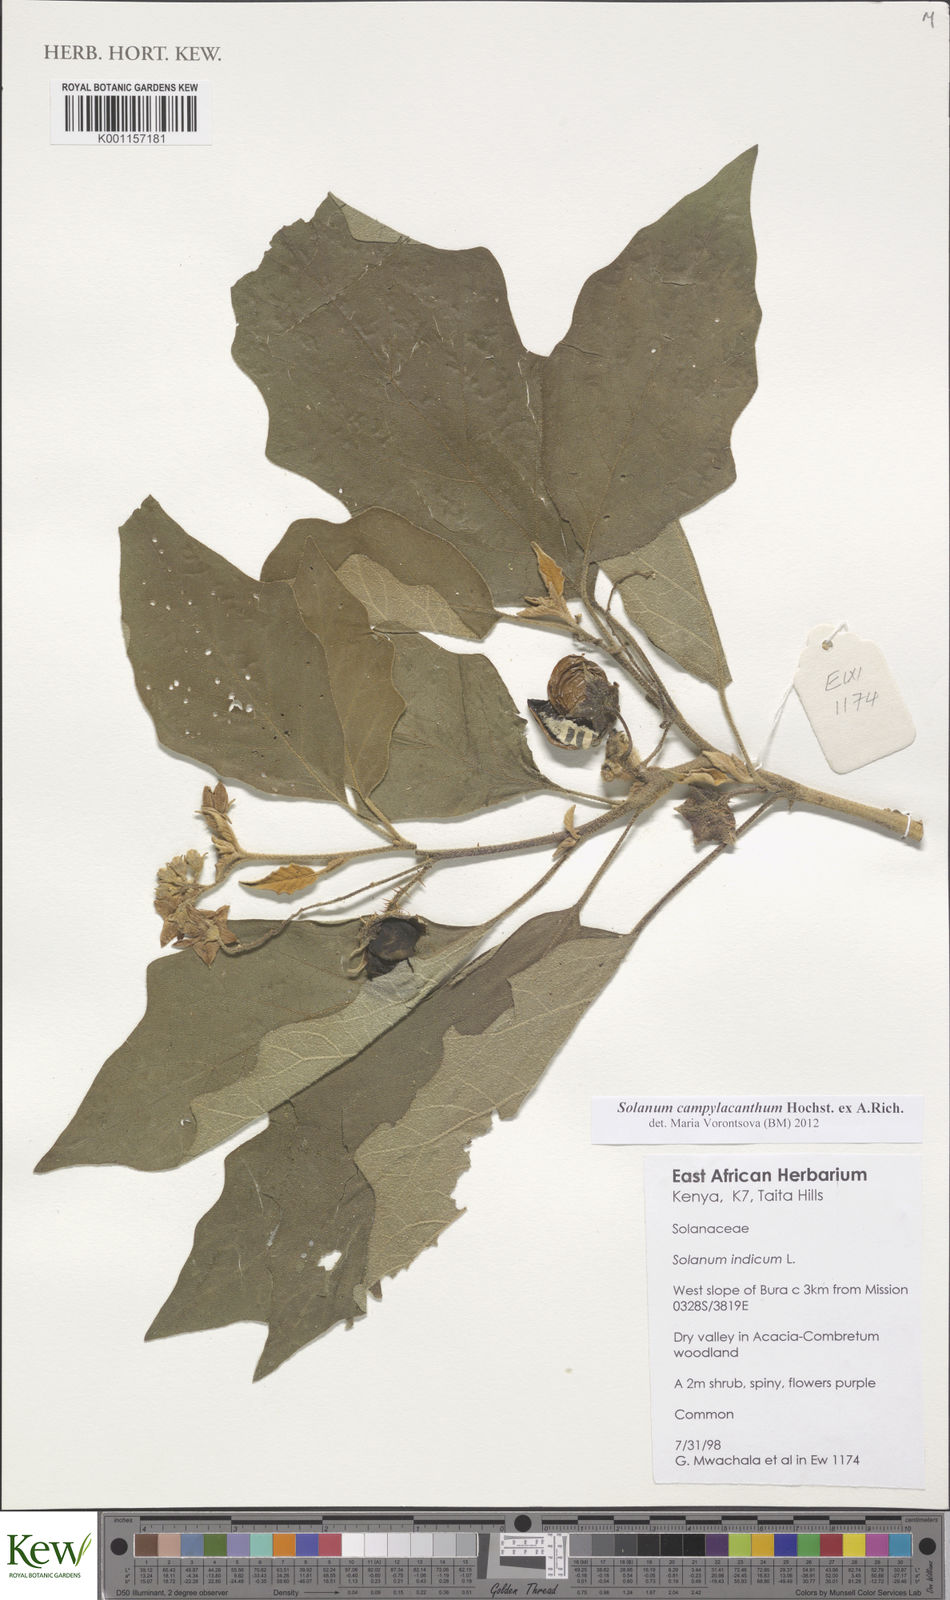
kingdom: Plantae
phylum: Tracheophyta
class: Magnoliopsida
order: Solanales
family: Solanaceae
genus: Solanum
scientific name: Solanum campylacanthum
